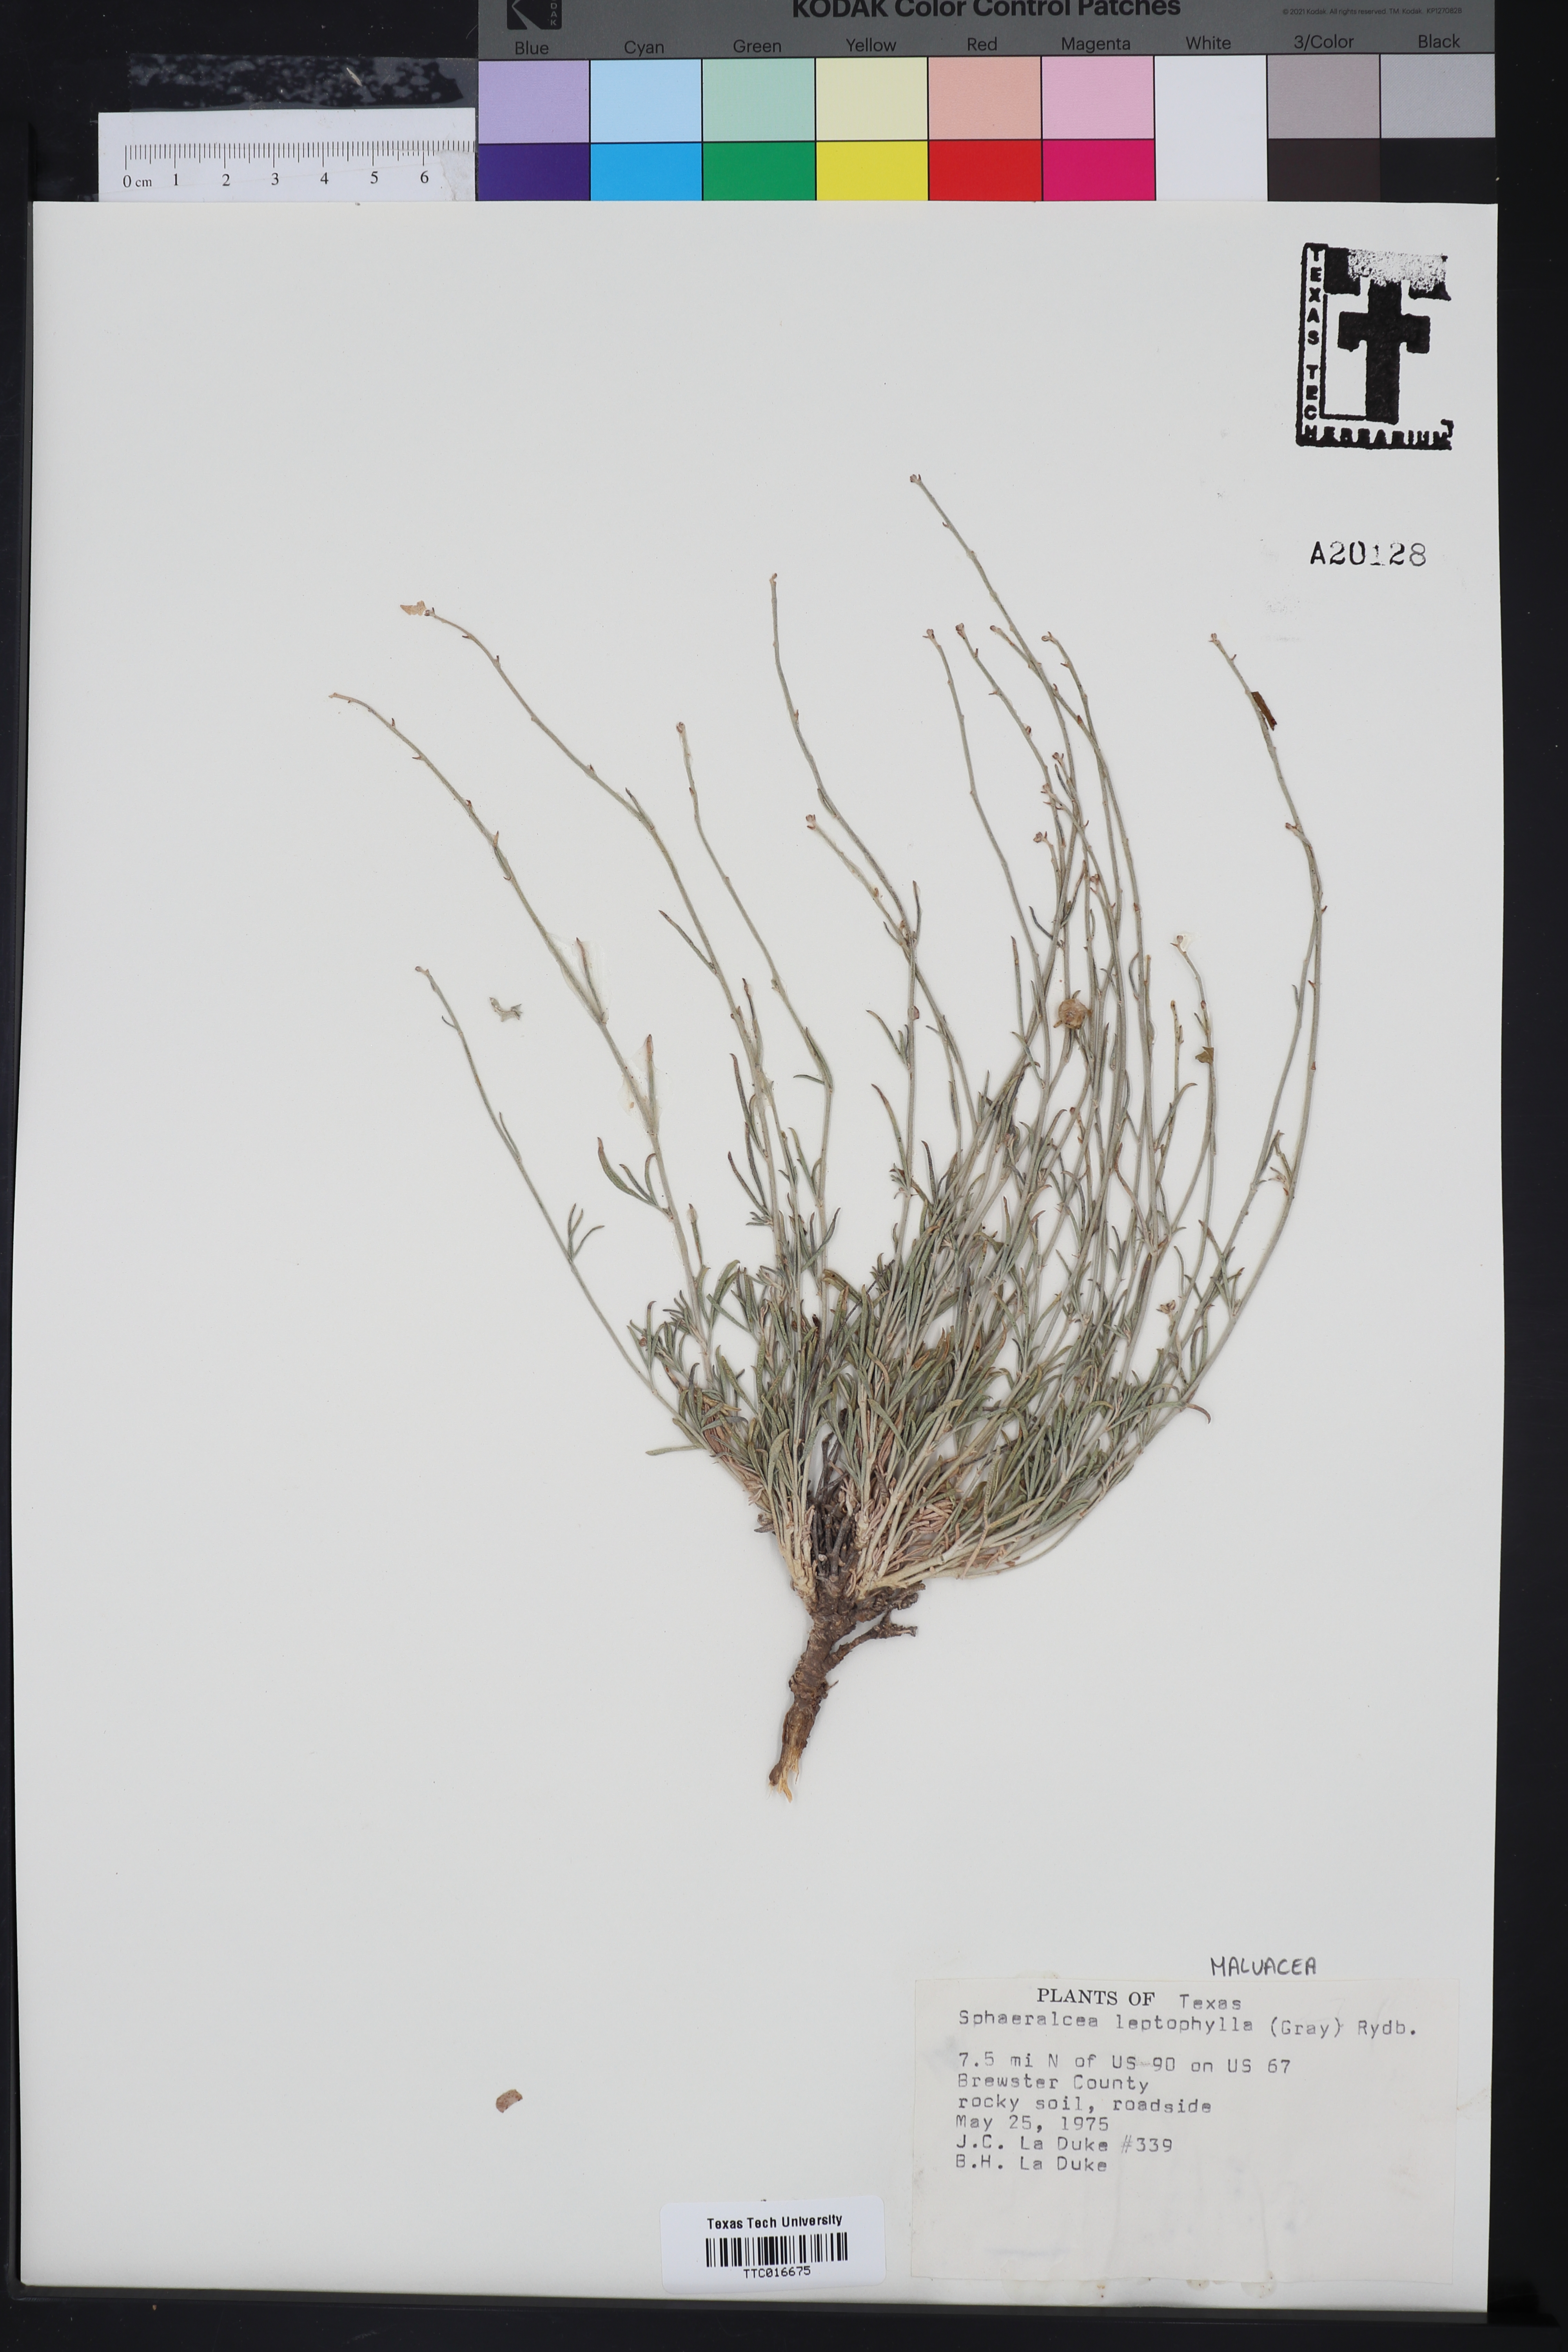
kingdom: Plantae
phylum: Tracheophyta
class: Magnoliopsida
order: Malvales
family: Malvaceae
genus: Sphaeralcea
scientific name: Sphaeralcea leptophylla
